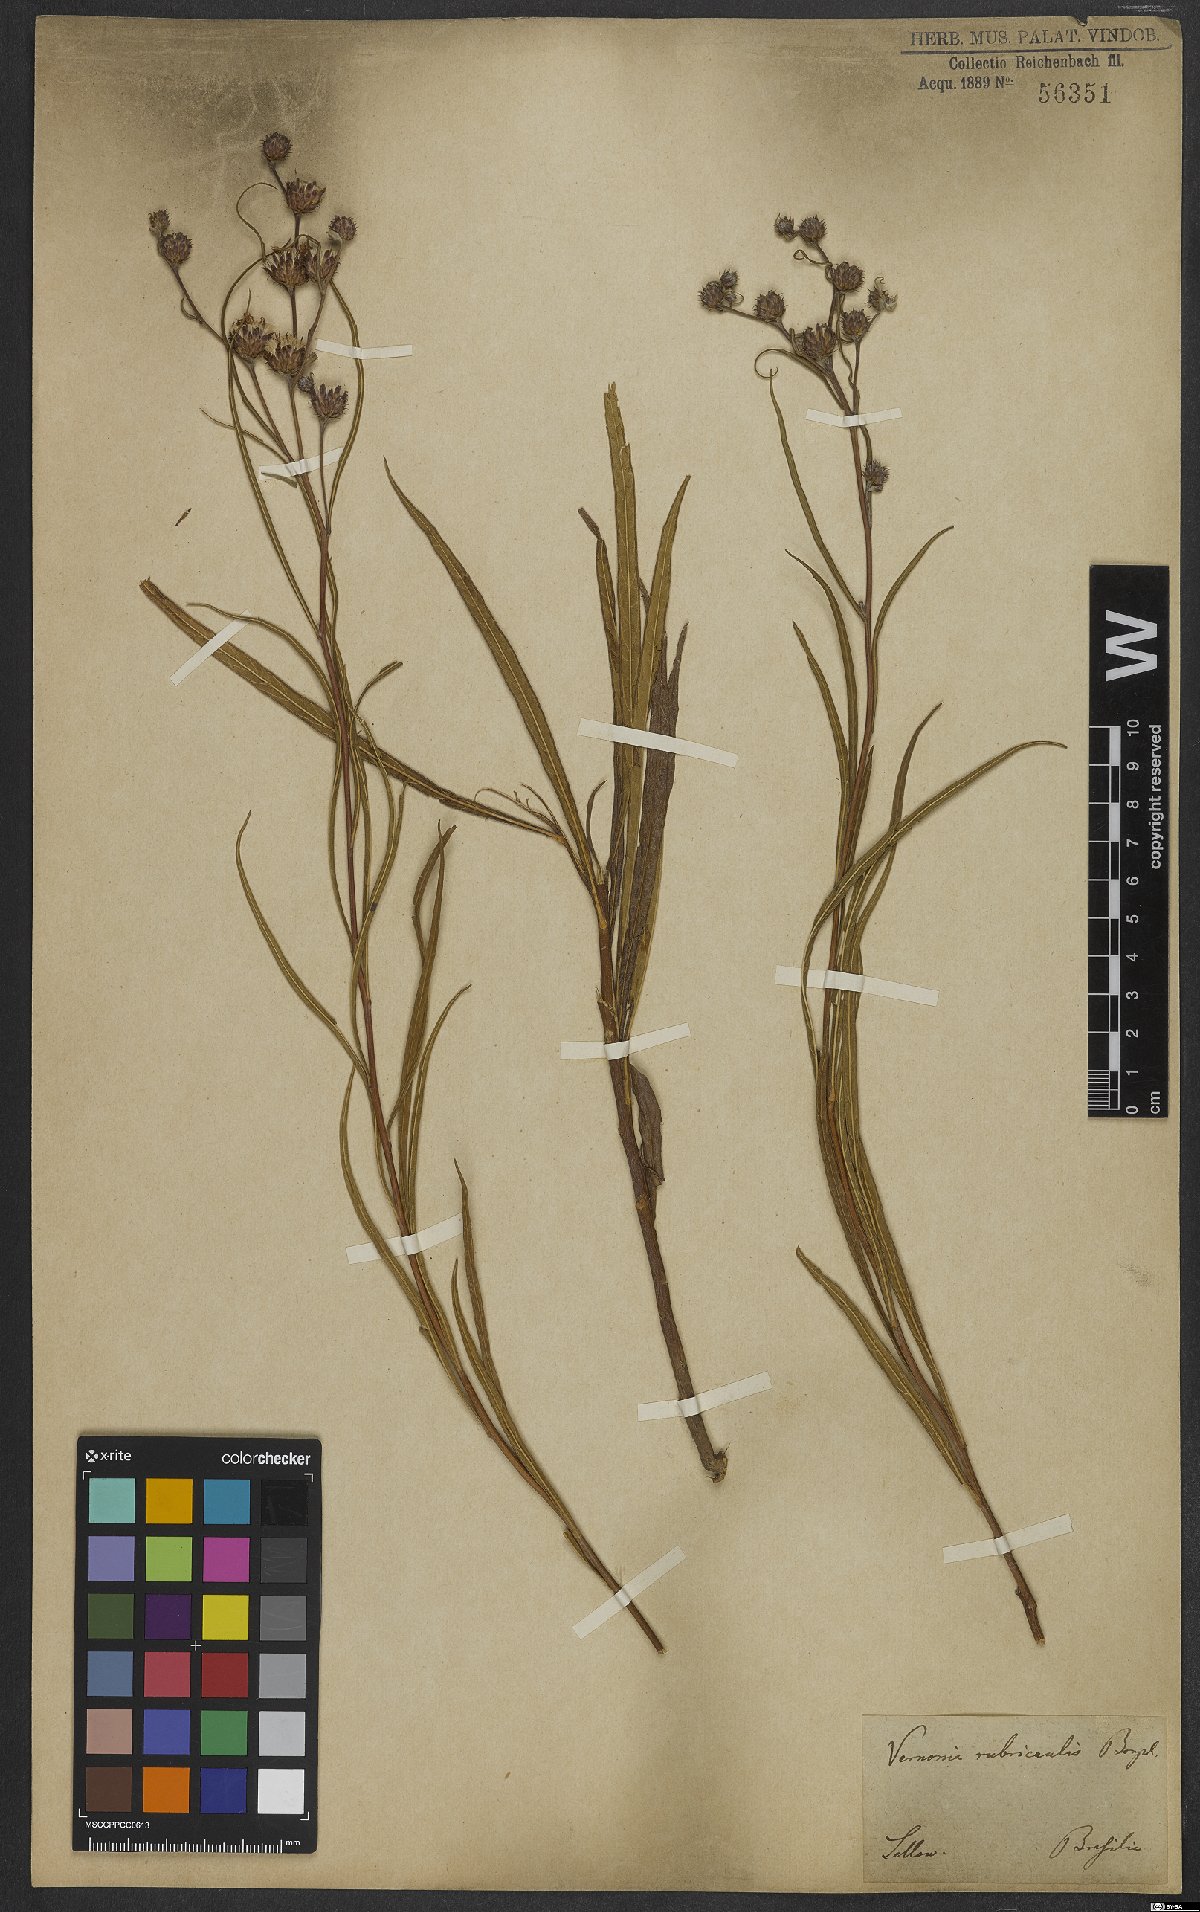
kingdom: Plantae
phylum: Tracheophyta
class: Magnoliopsida
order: Asterales
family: Asteraceae
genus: Lessingianthus
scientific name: Lessingianthus rubricaulis
